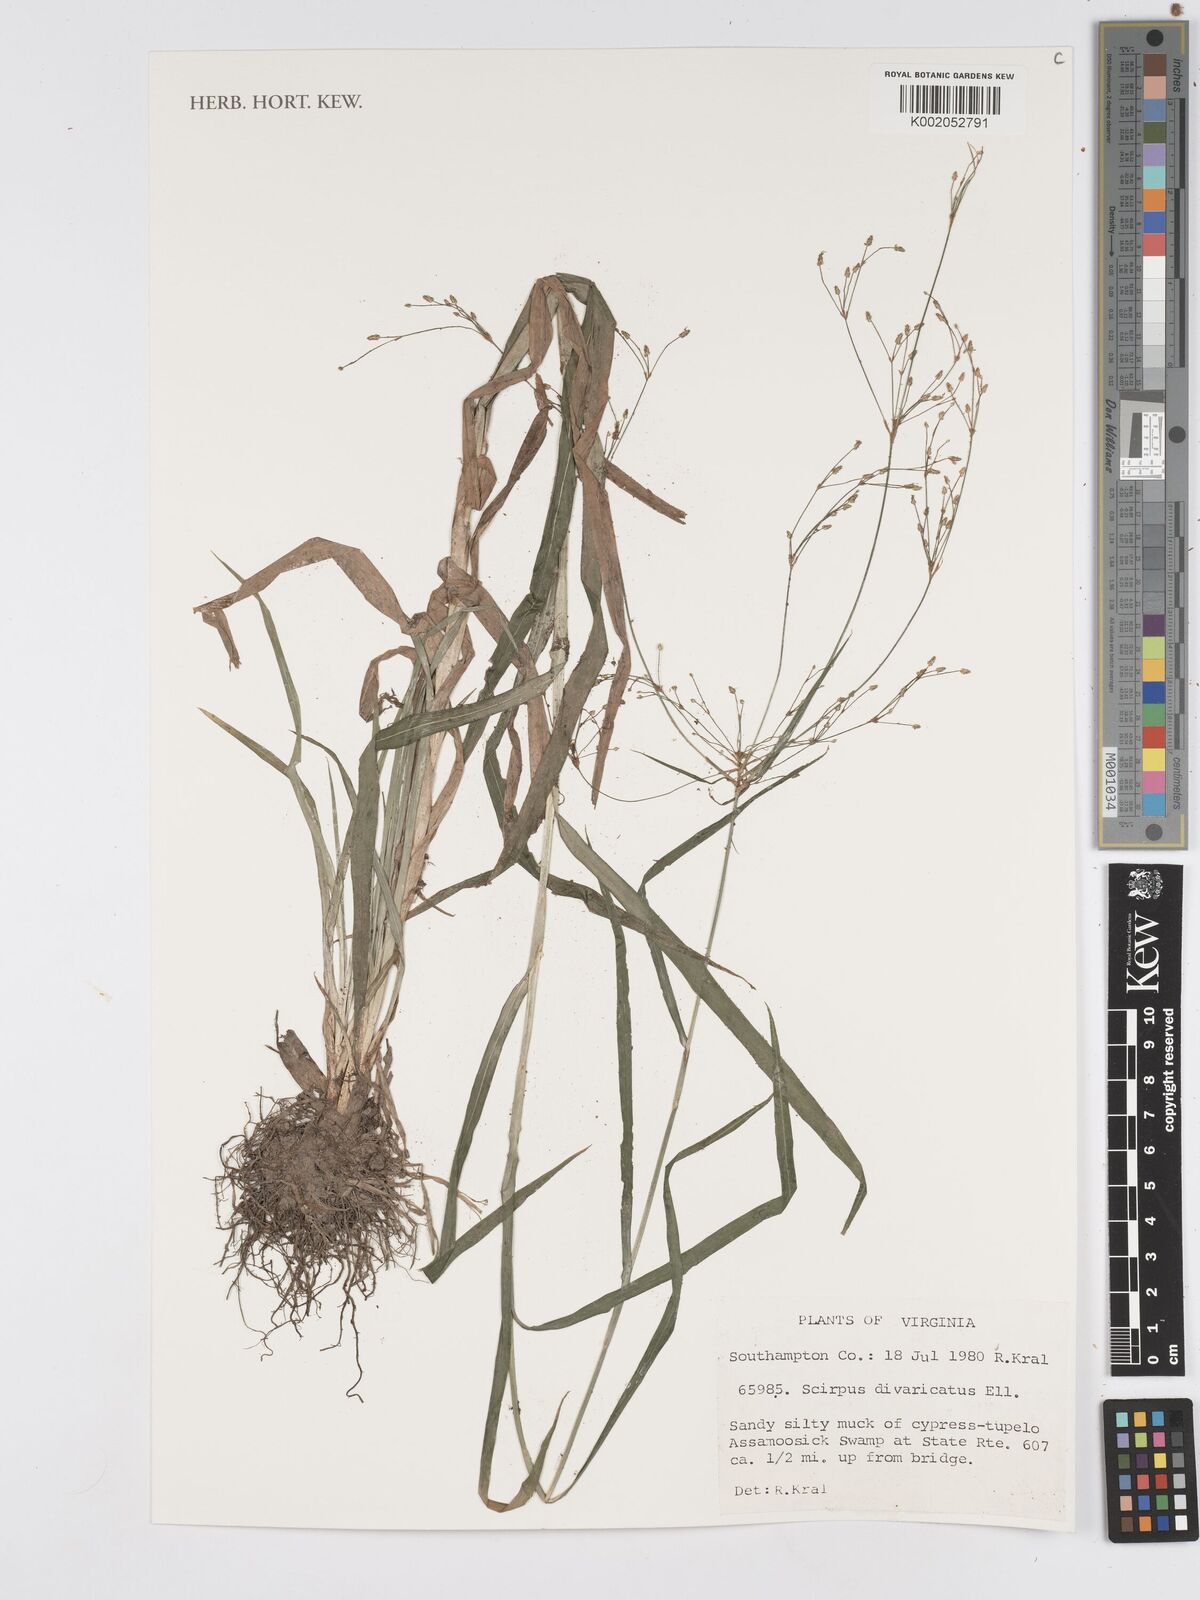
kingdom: Plantae
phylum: Tracheophyta
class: Liliopsida
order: Poales
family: Cyperaceae
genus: Scirpus
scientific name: Scirpus divaricatus
